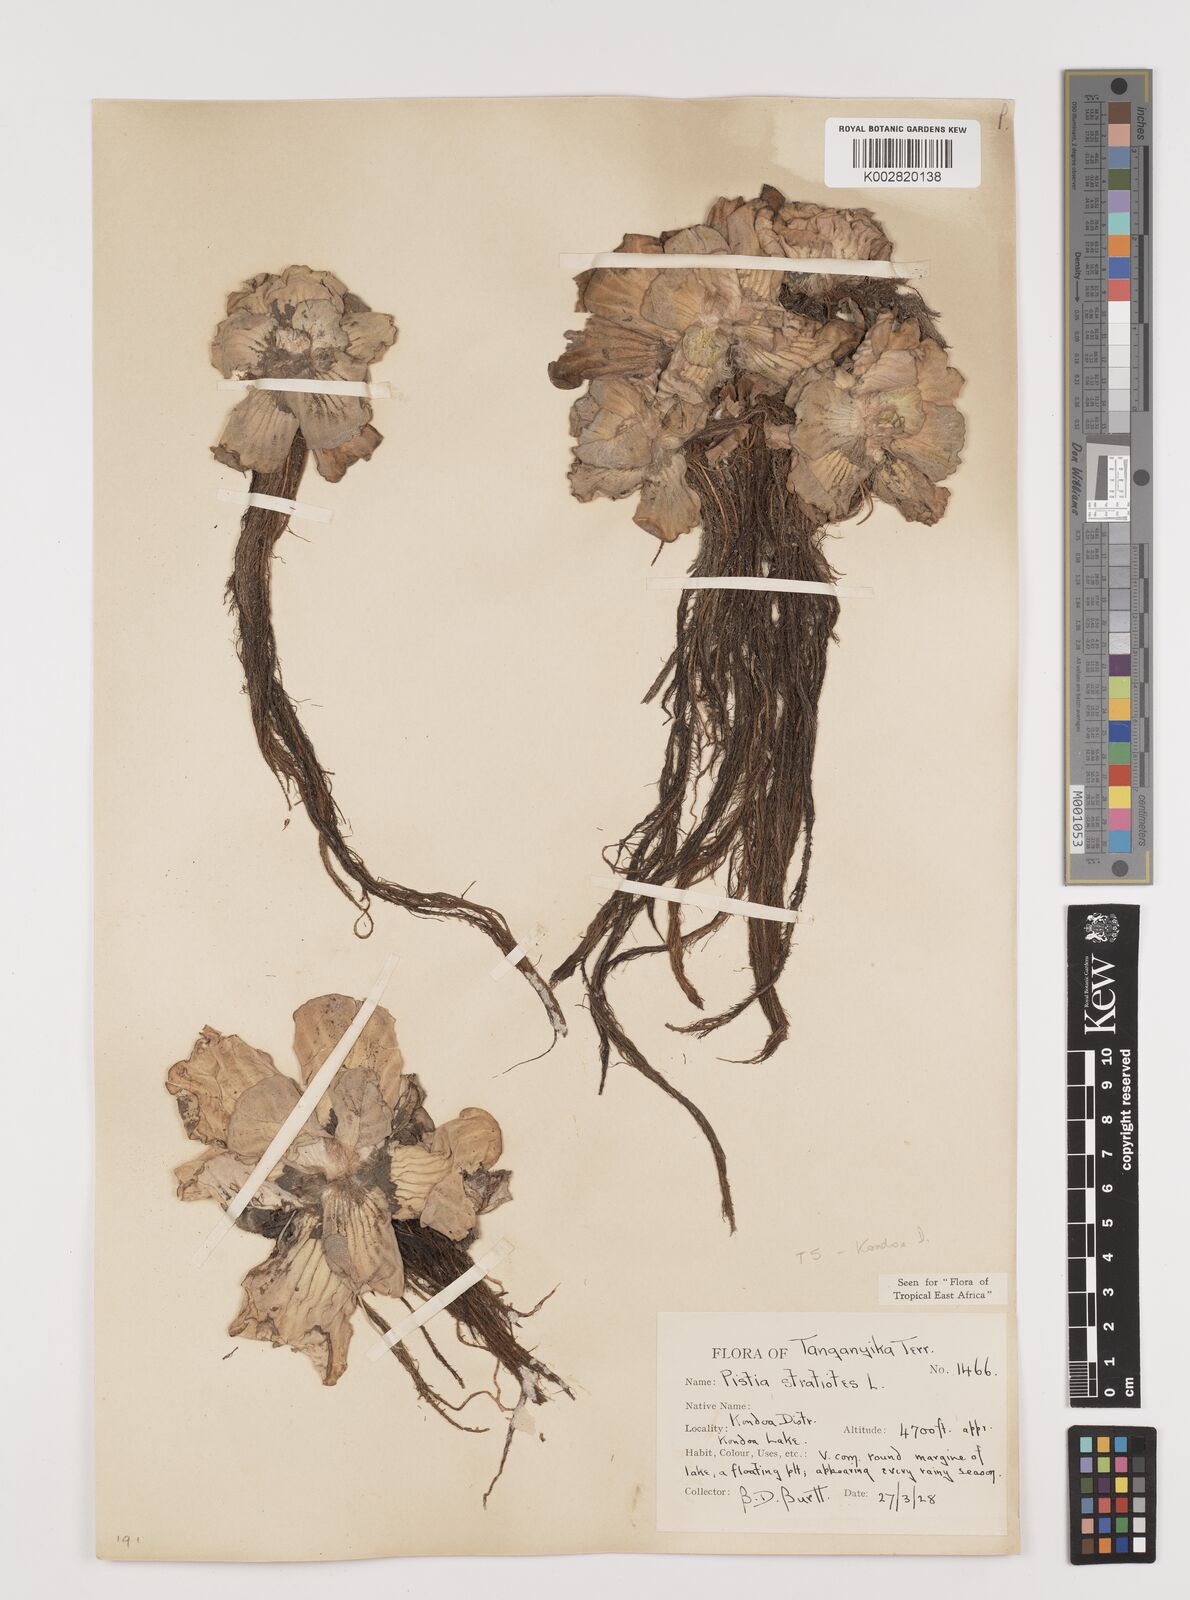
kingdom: Plantae
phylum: Tracheophyta
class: Liliopsida
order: Alismatales
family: Araceae
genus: Pistia
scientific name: Pistia stratiotes
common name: Water lettuce
